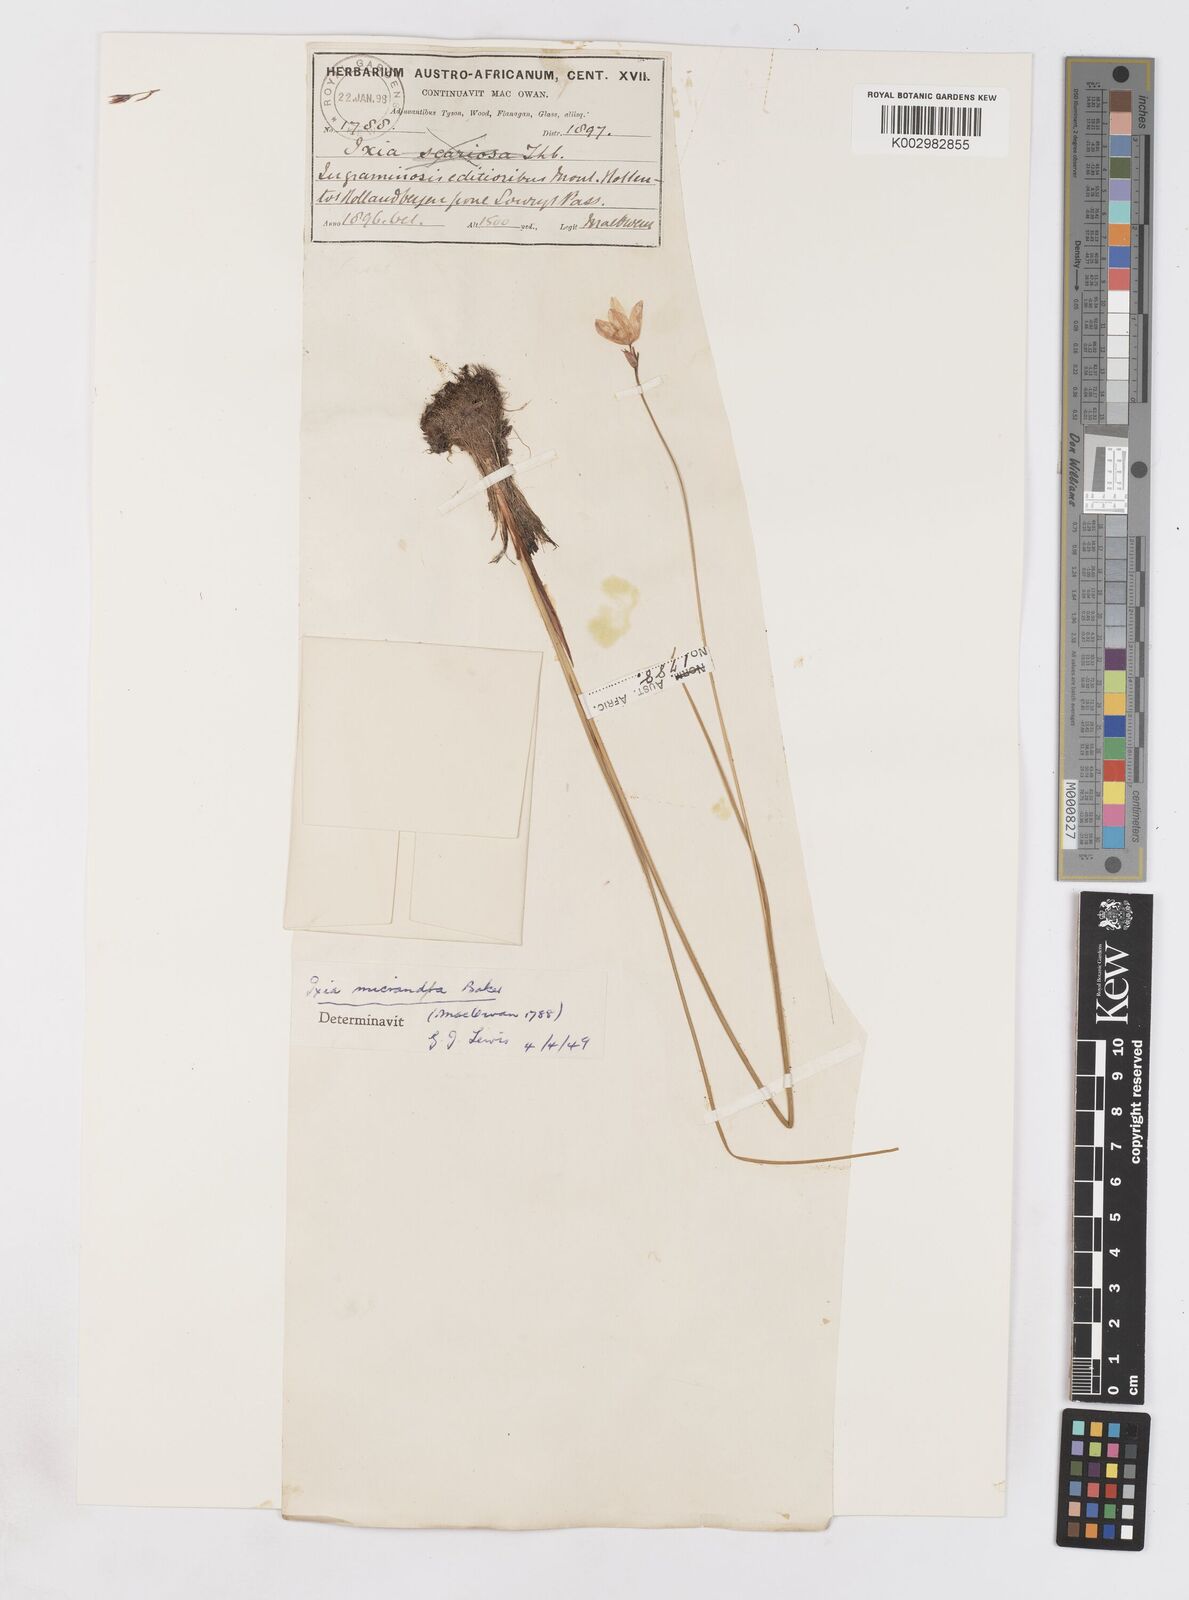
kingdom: Plantae
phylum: Tracheophyta
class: Liliopsida
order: Asparagales
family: Iridaceae
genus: Ixia
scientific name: Ixia micrandra
